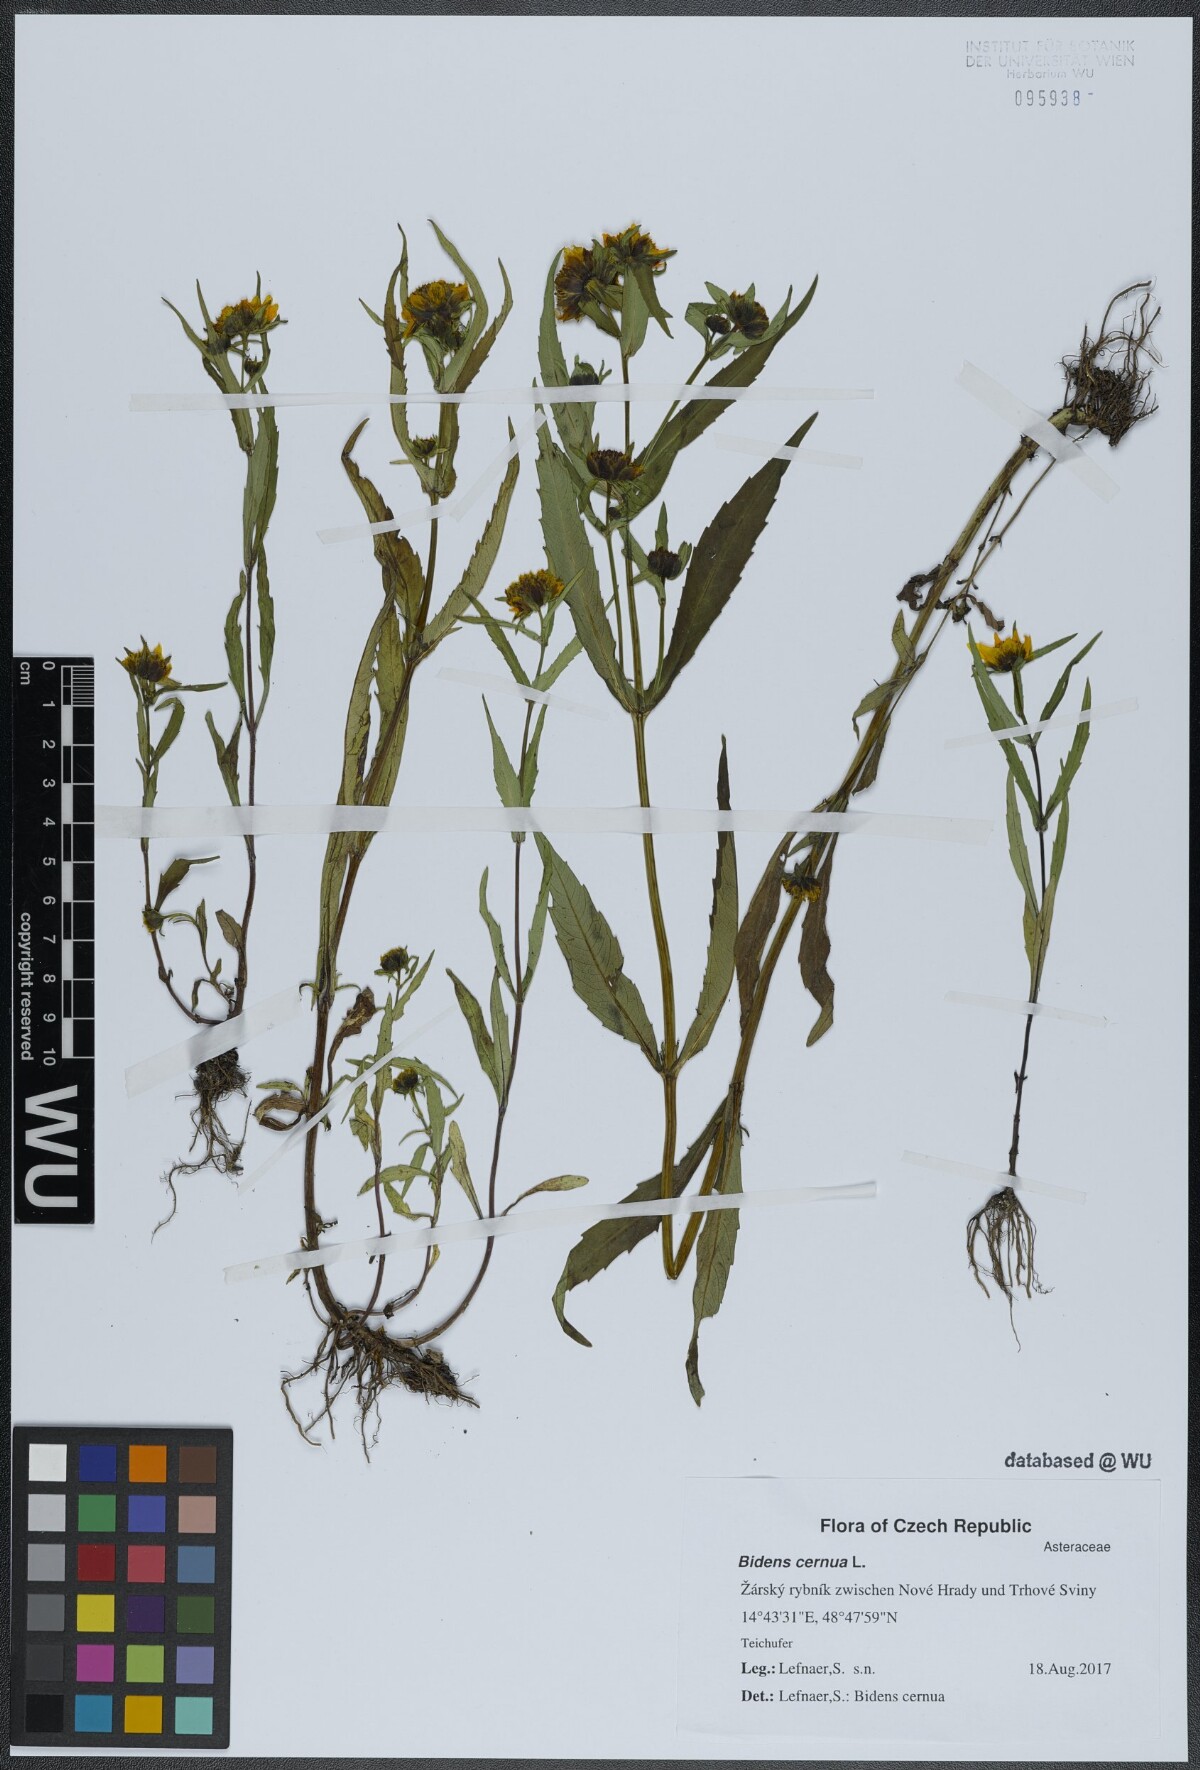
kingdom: Plantae
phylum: Tracheophyta
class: Magnoliopsida
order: Asterales
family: Asteraceae
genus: Bidens
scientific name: Bidens cernua
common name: Nodding bur-marigold
